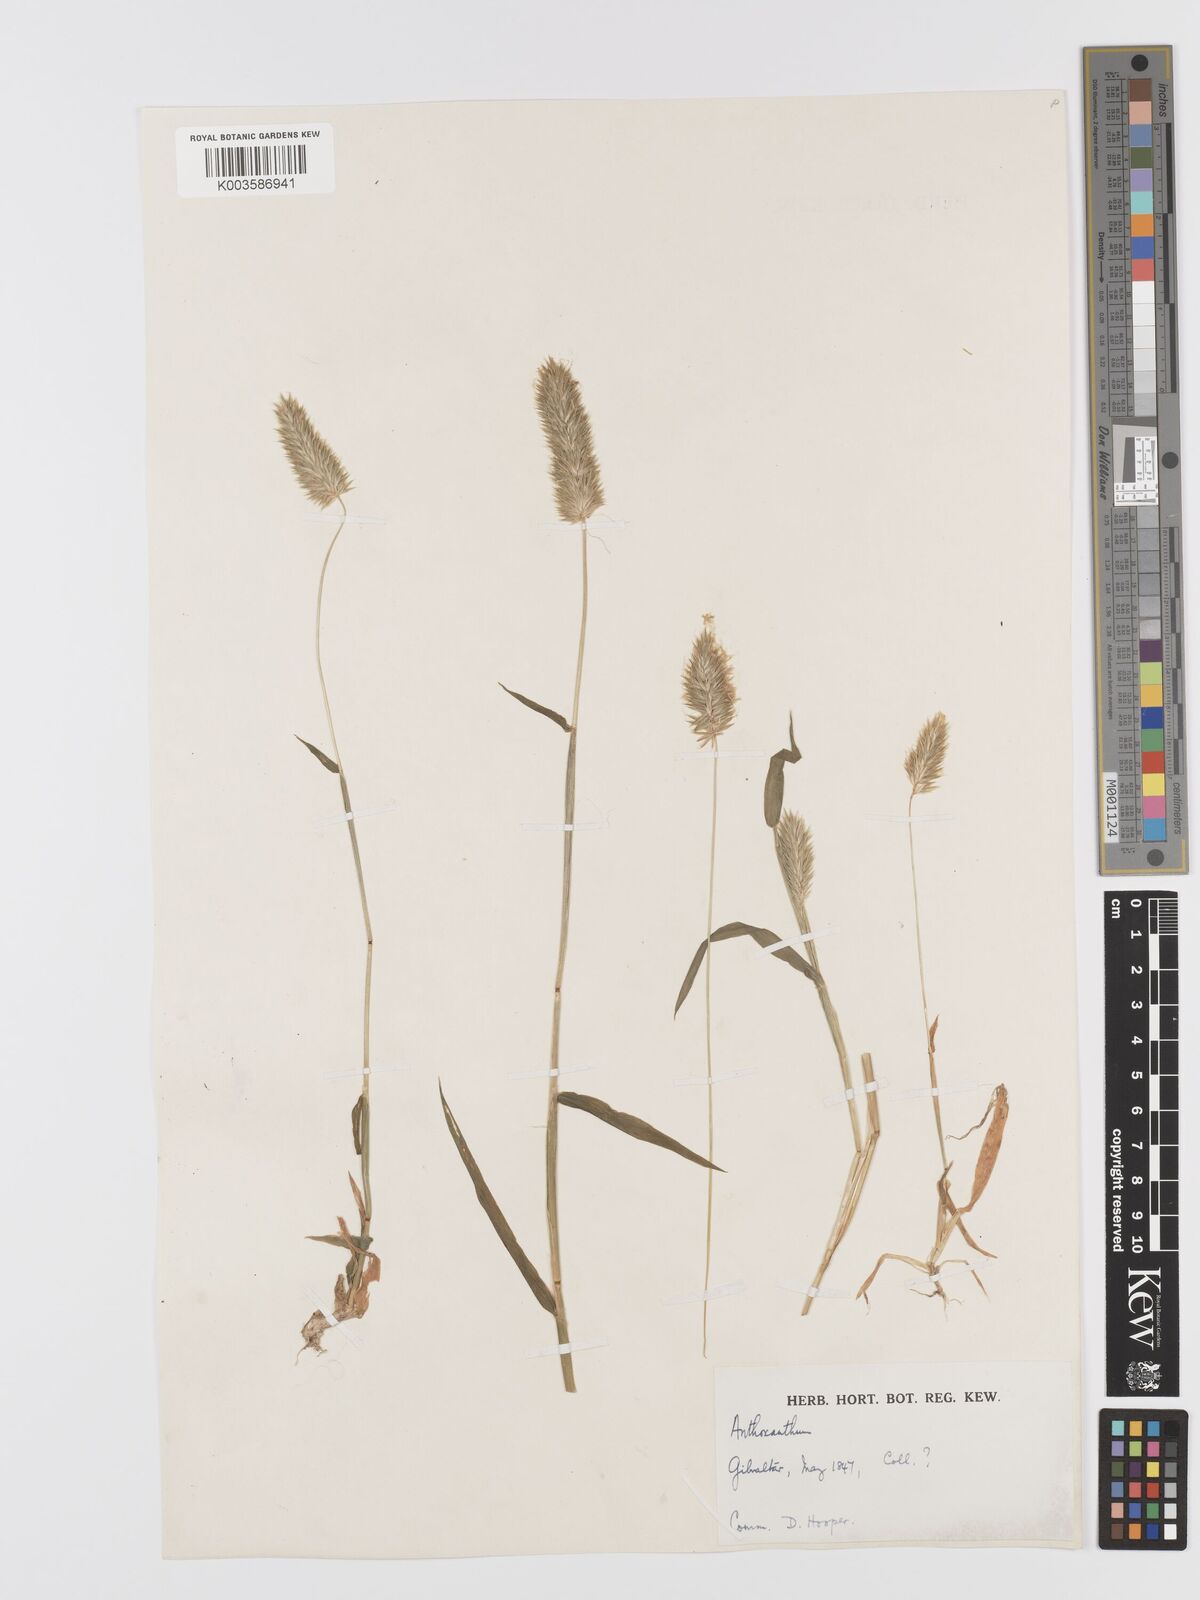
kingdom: Plantae
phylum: Tracheophyta
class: Liliopsida
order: Poales
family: Poaceae
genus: Anthoxanthum
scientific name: Anthoxanthum
